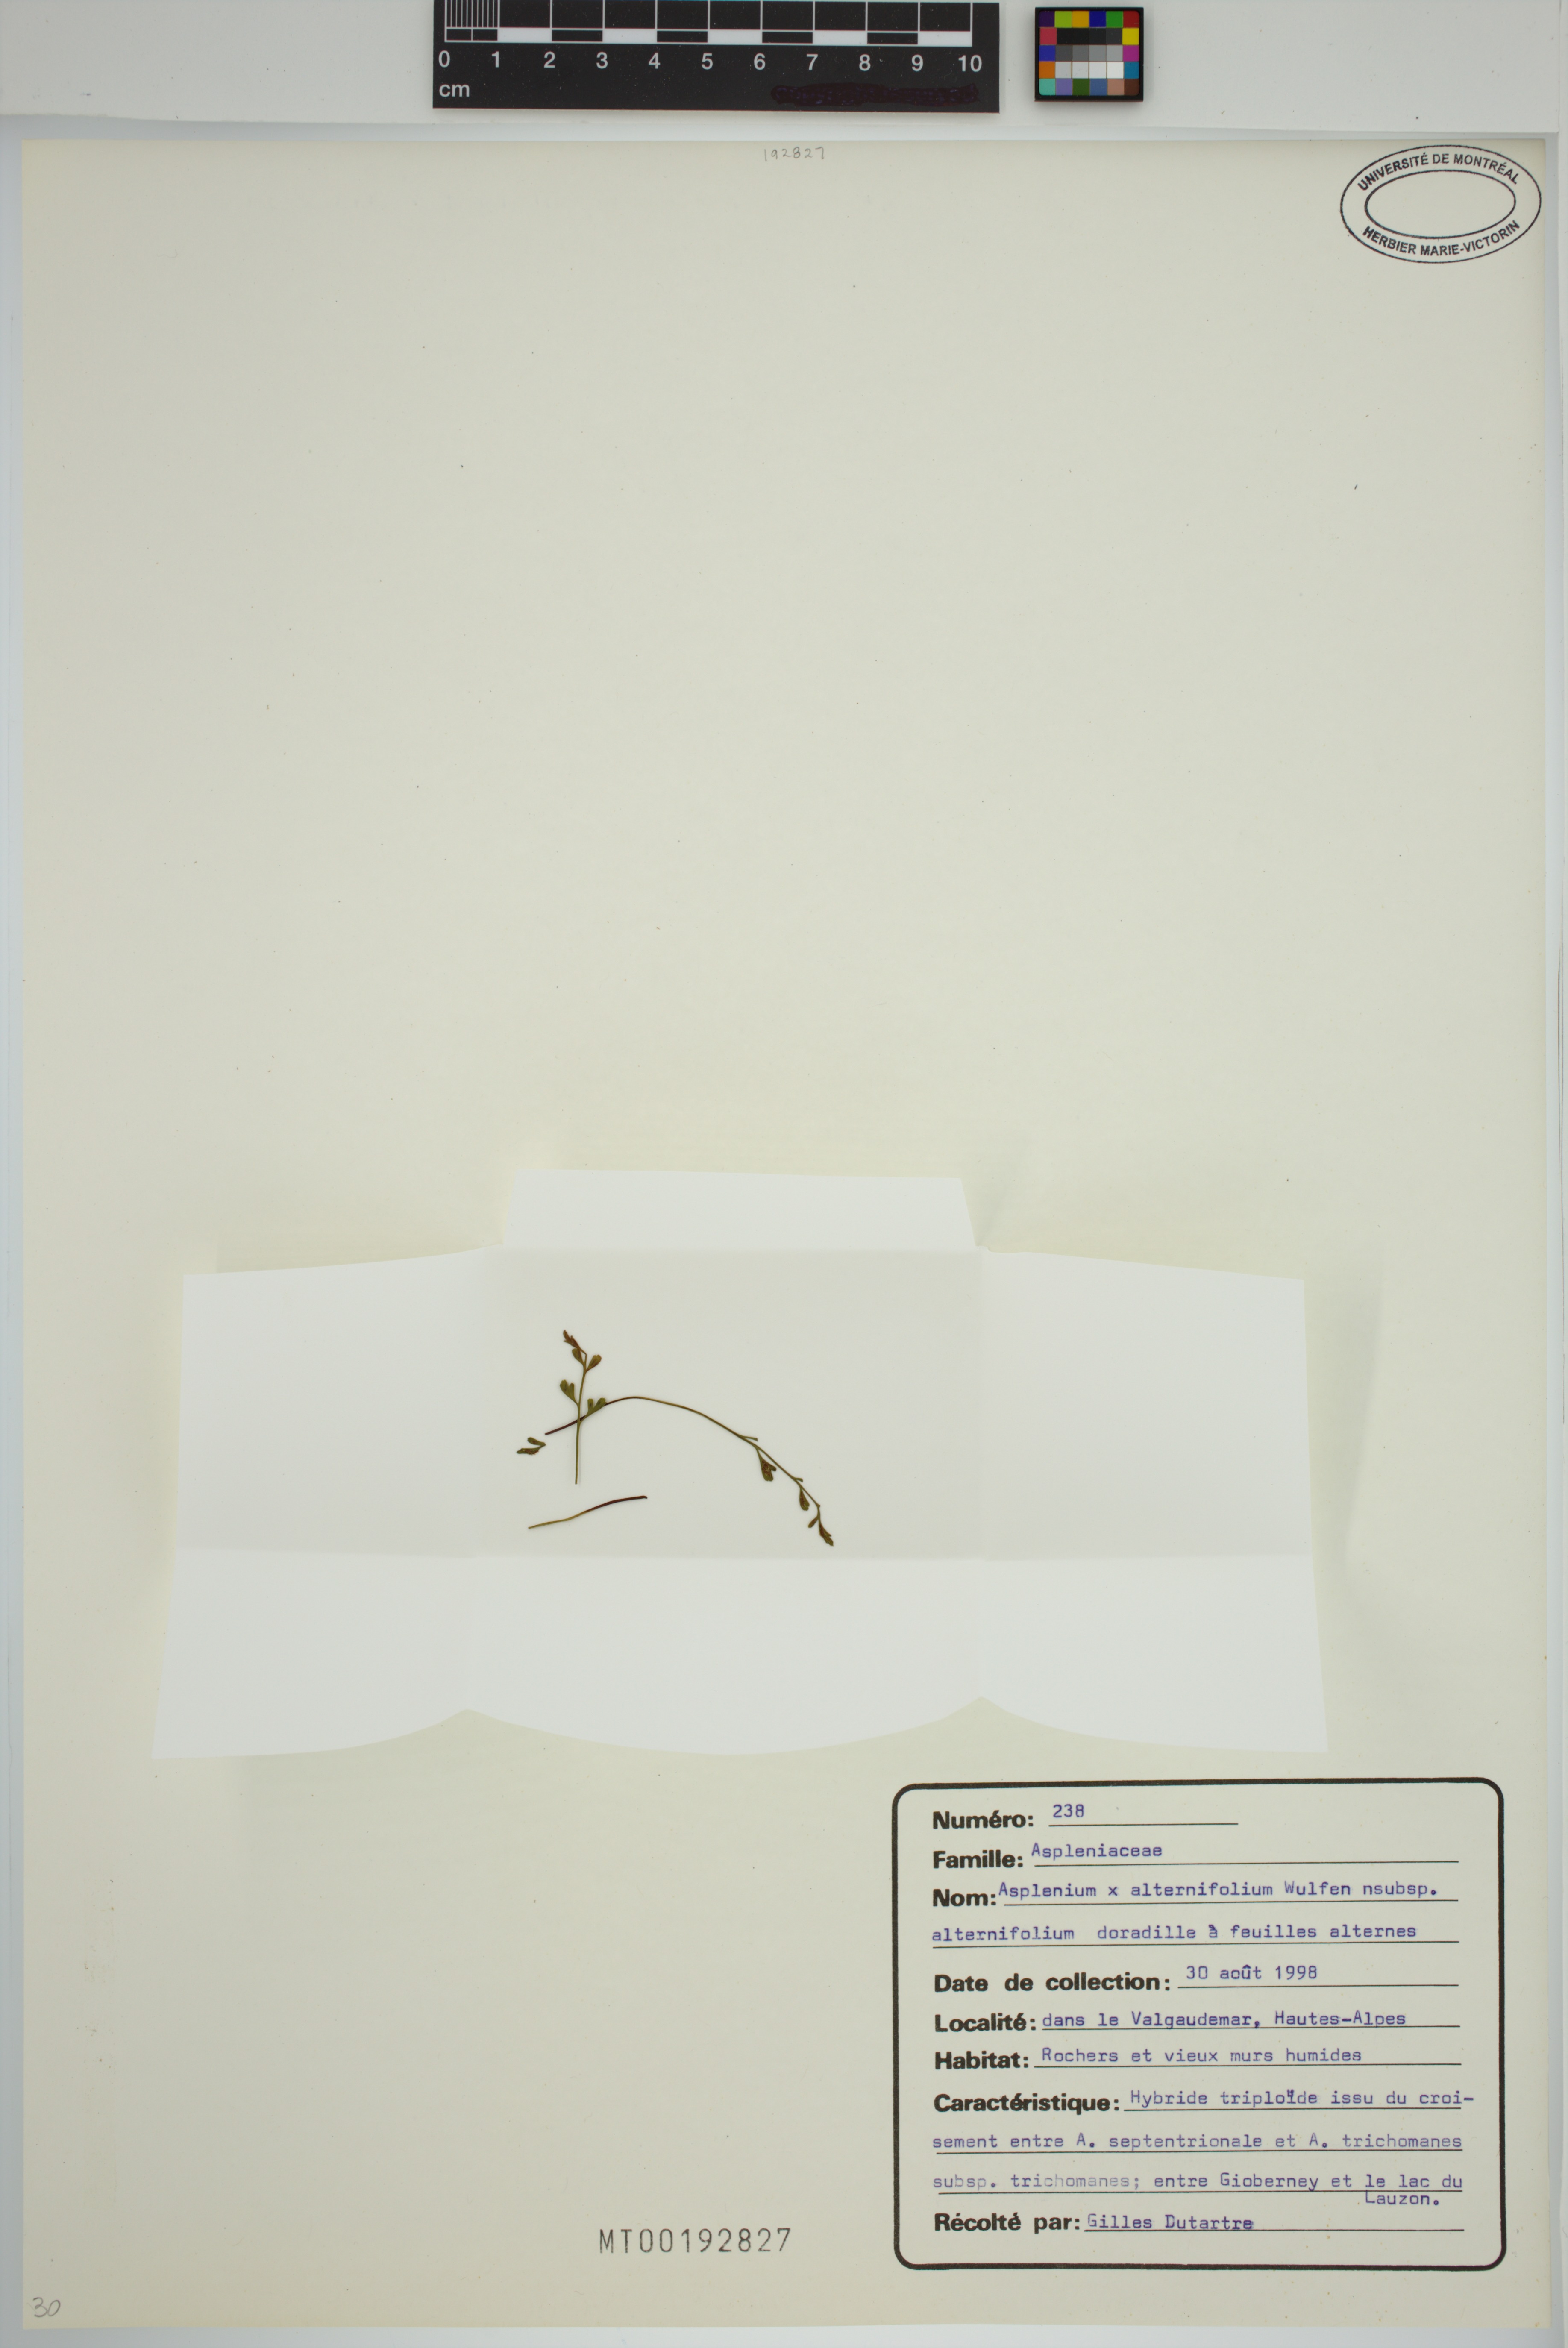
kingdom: Plantae
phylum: Tracheophyta
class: Polypodiopsida
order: Polypodiales
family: Aspleniaceae
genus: Asplenium
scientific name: Asplenium alternifolium
